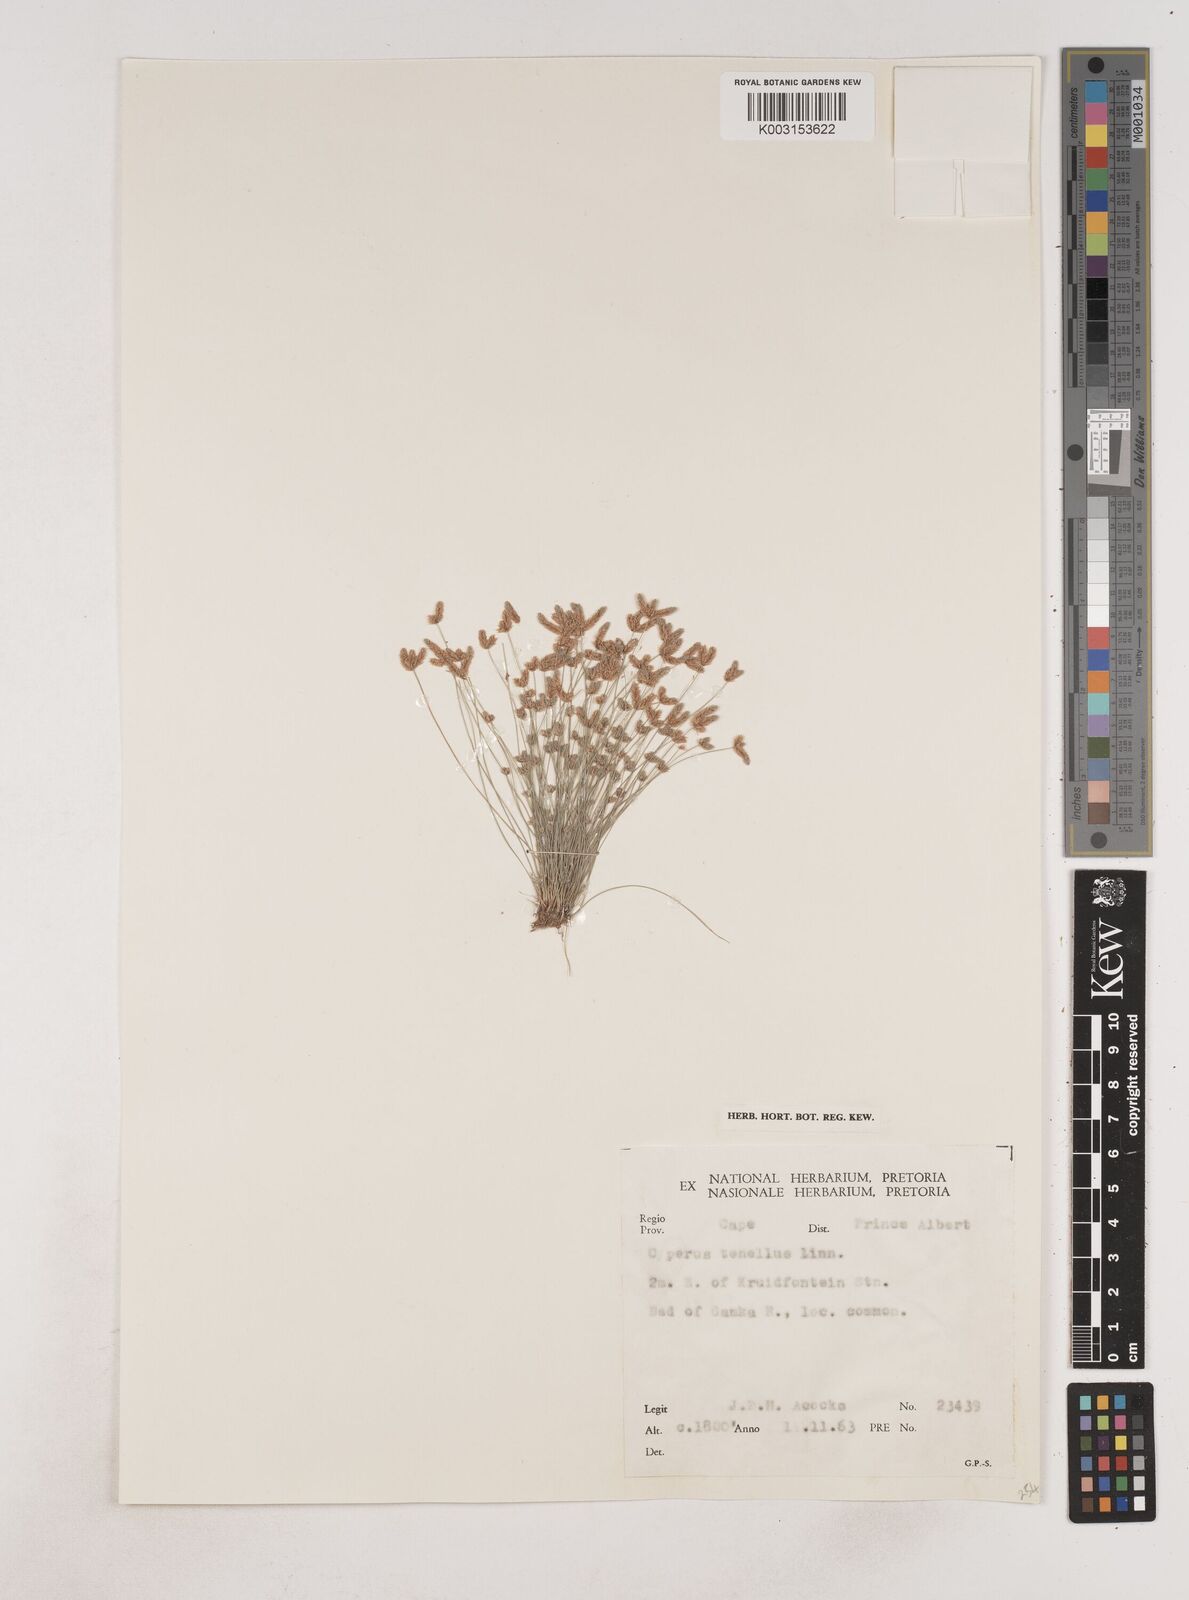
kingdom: Plantae
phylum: Tracheophyta
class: Liliopsida
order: Poales
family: Cyperaceae
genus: Isolepis
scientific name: Isolepis levynsiana
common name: Sedge
